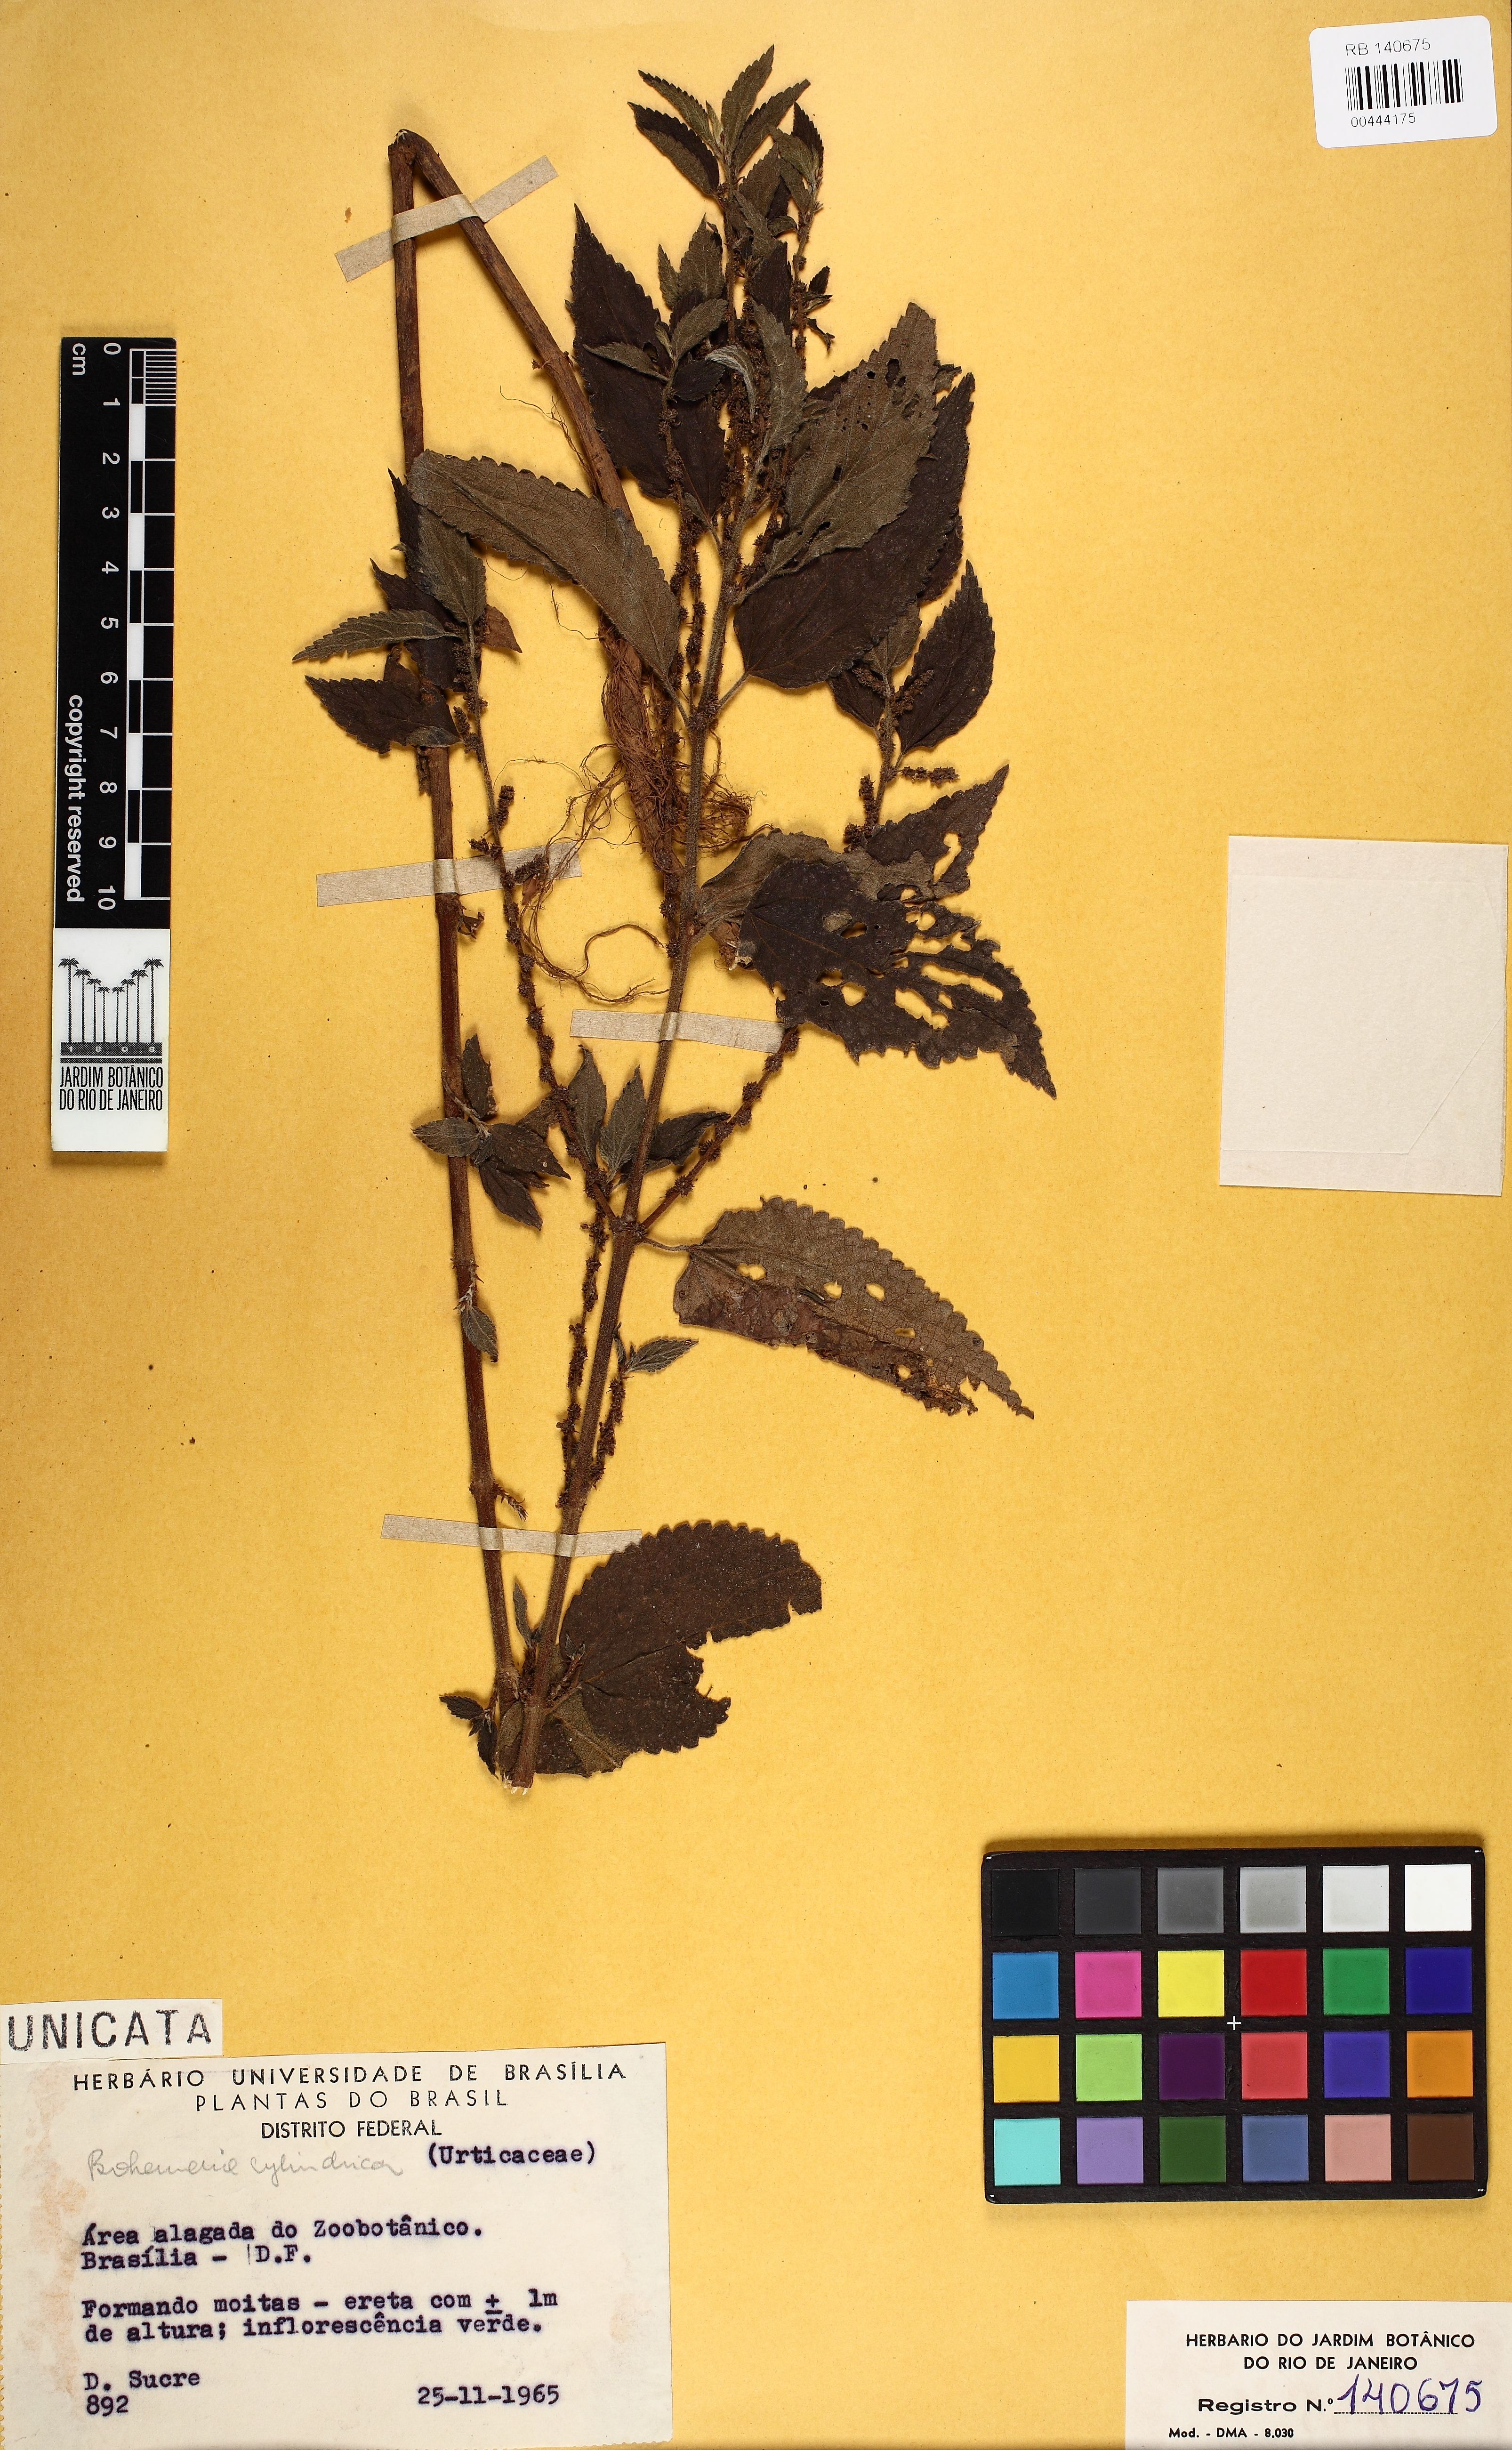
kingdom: Plantae
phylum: Tracheophyta
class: Magnoliopsida
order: Rosales
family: Urticaceae
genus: Boehmeria
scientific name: Boehmeria cylindrica
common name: Bog-hemp
